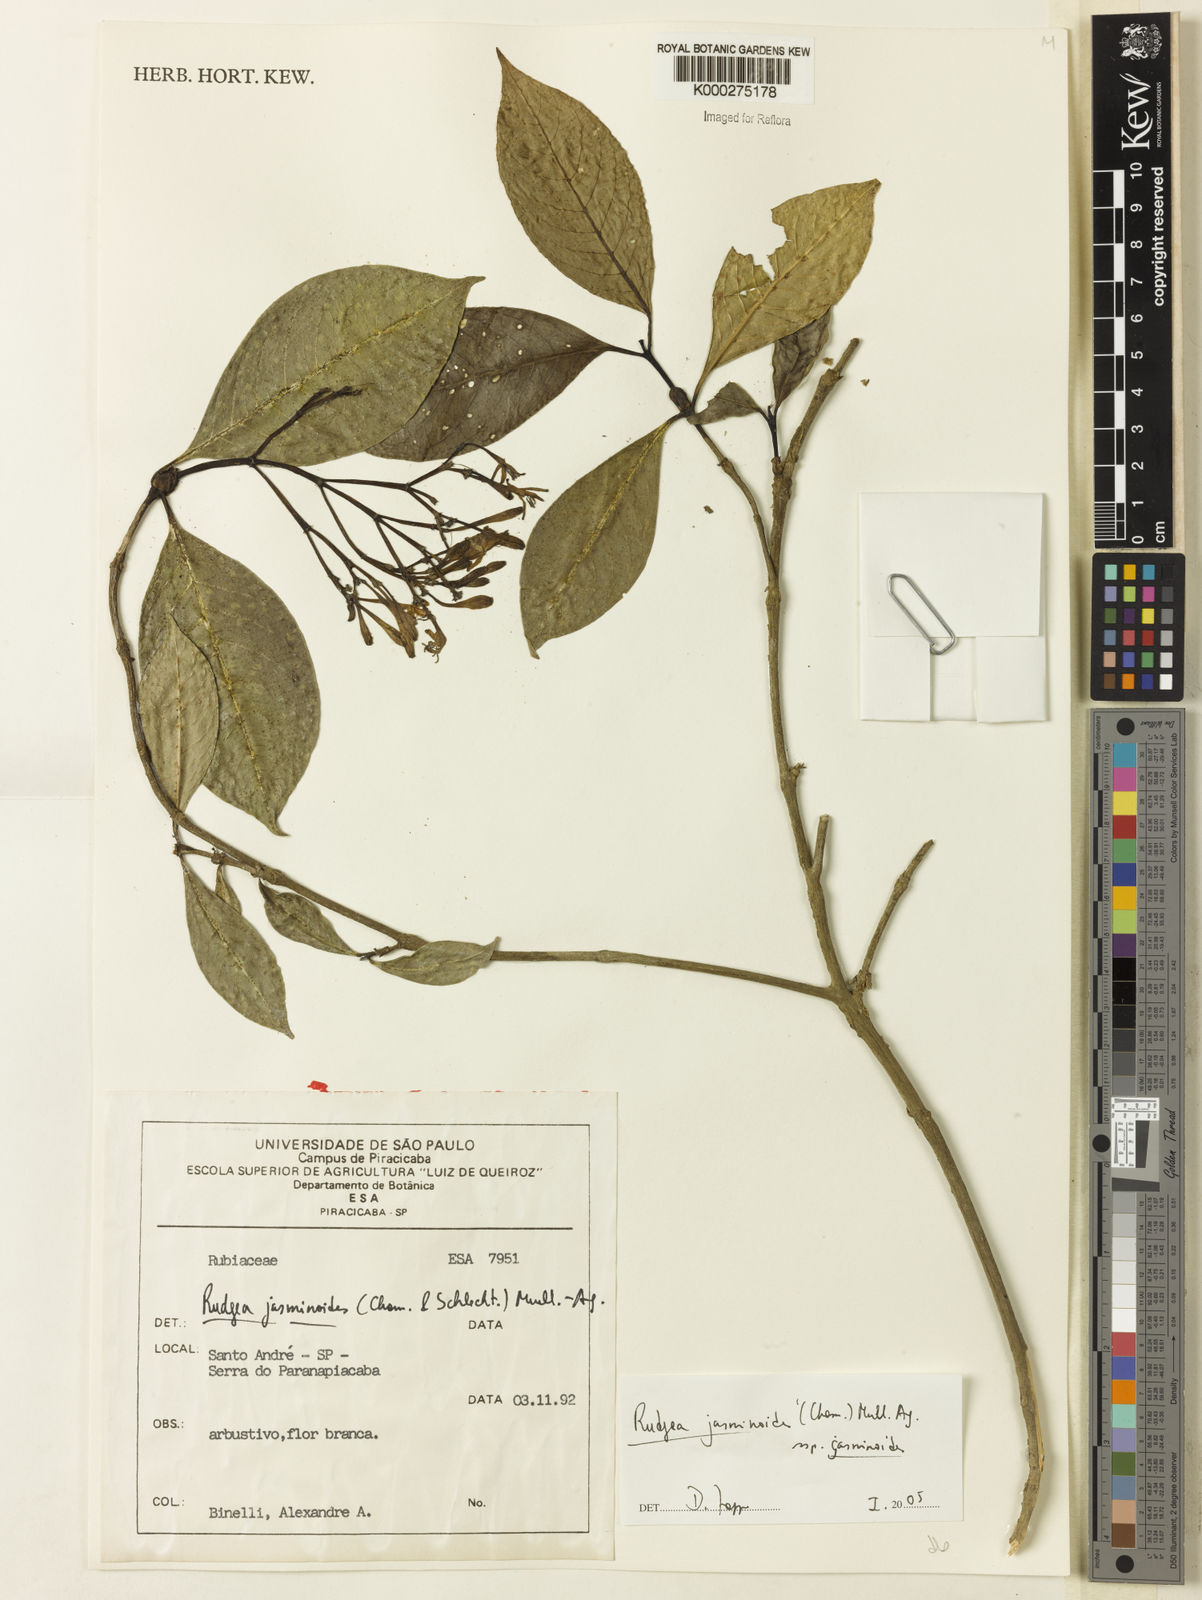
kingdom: Plantae
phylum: Tracheophyta
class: Magnoliopsida
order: Gentianales
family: Rubiaceae
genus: Rudgea
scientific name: Rudgea jasminoides
